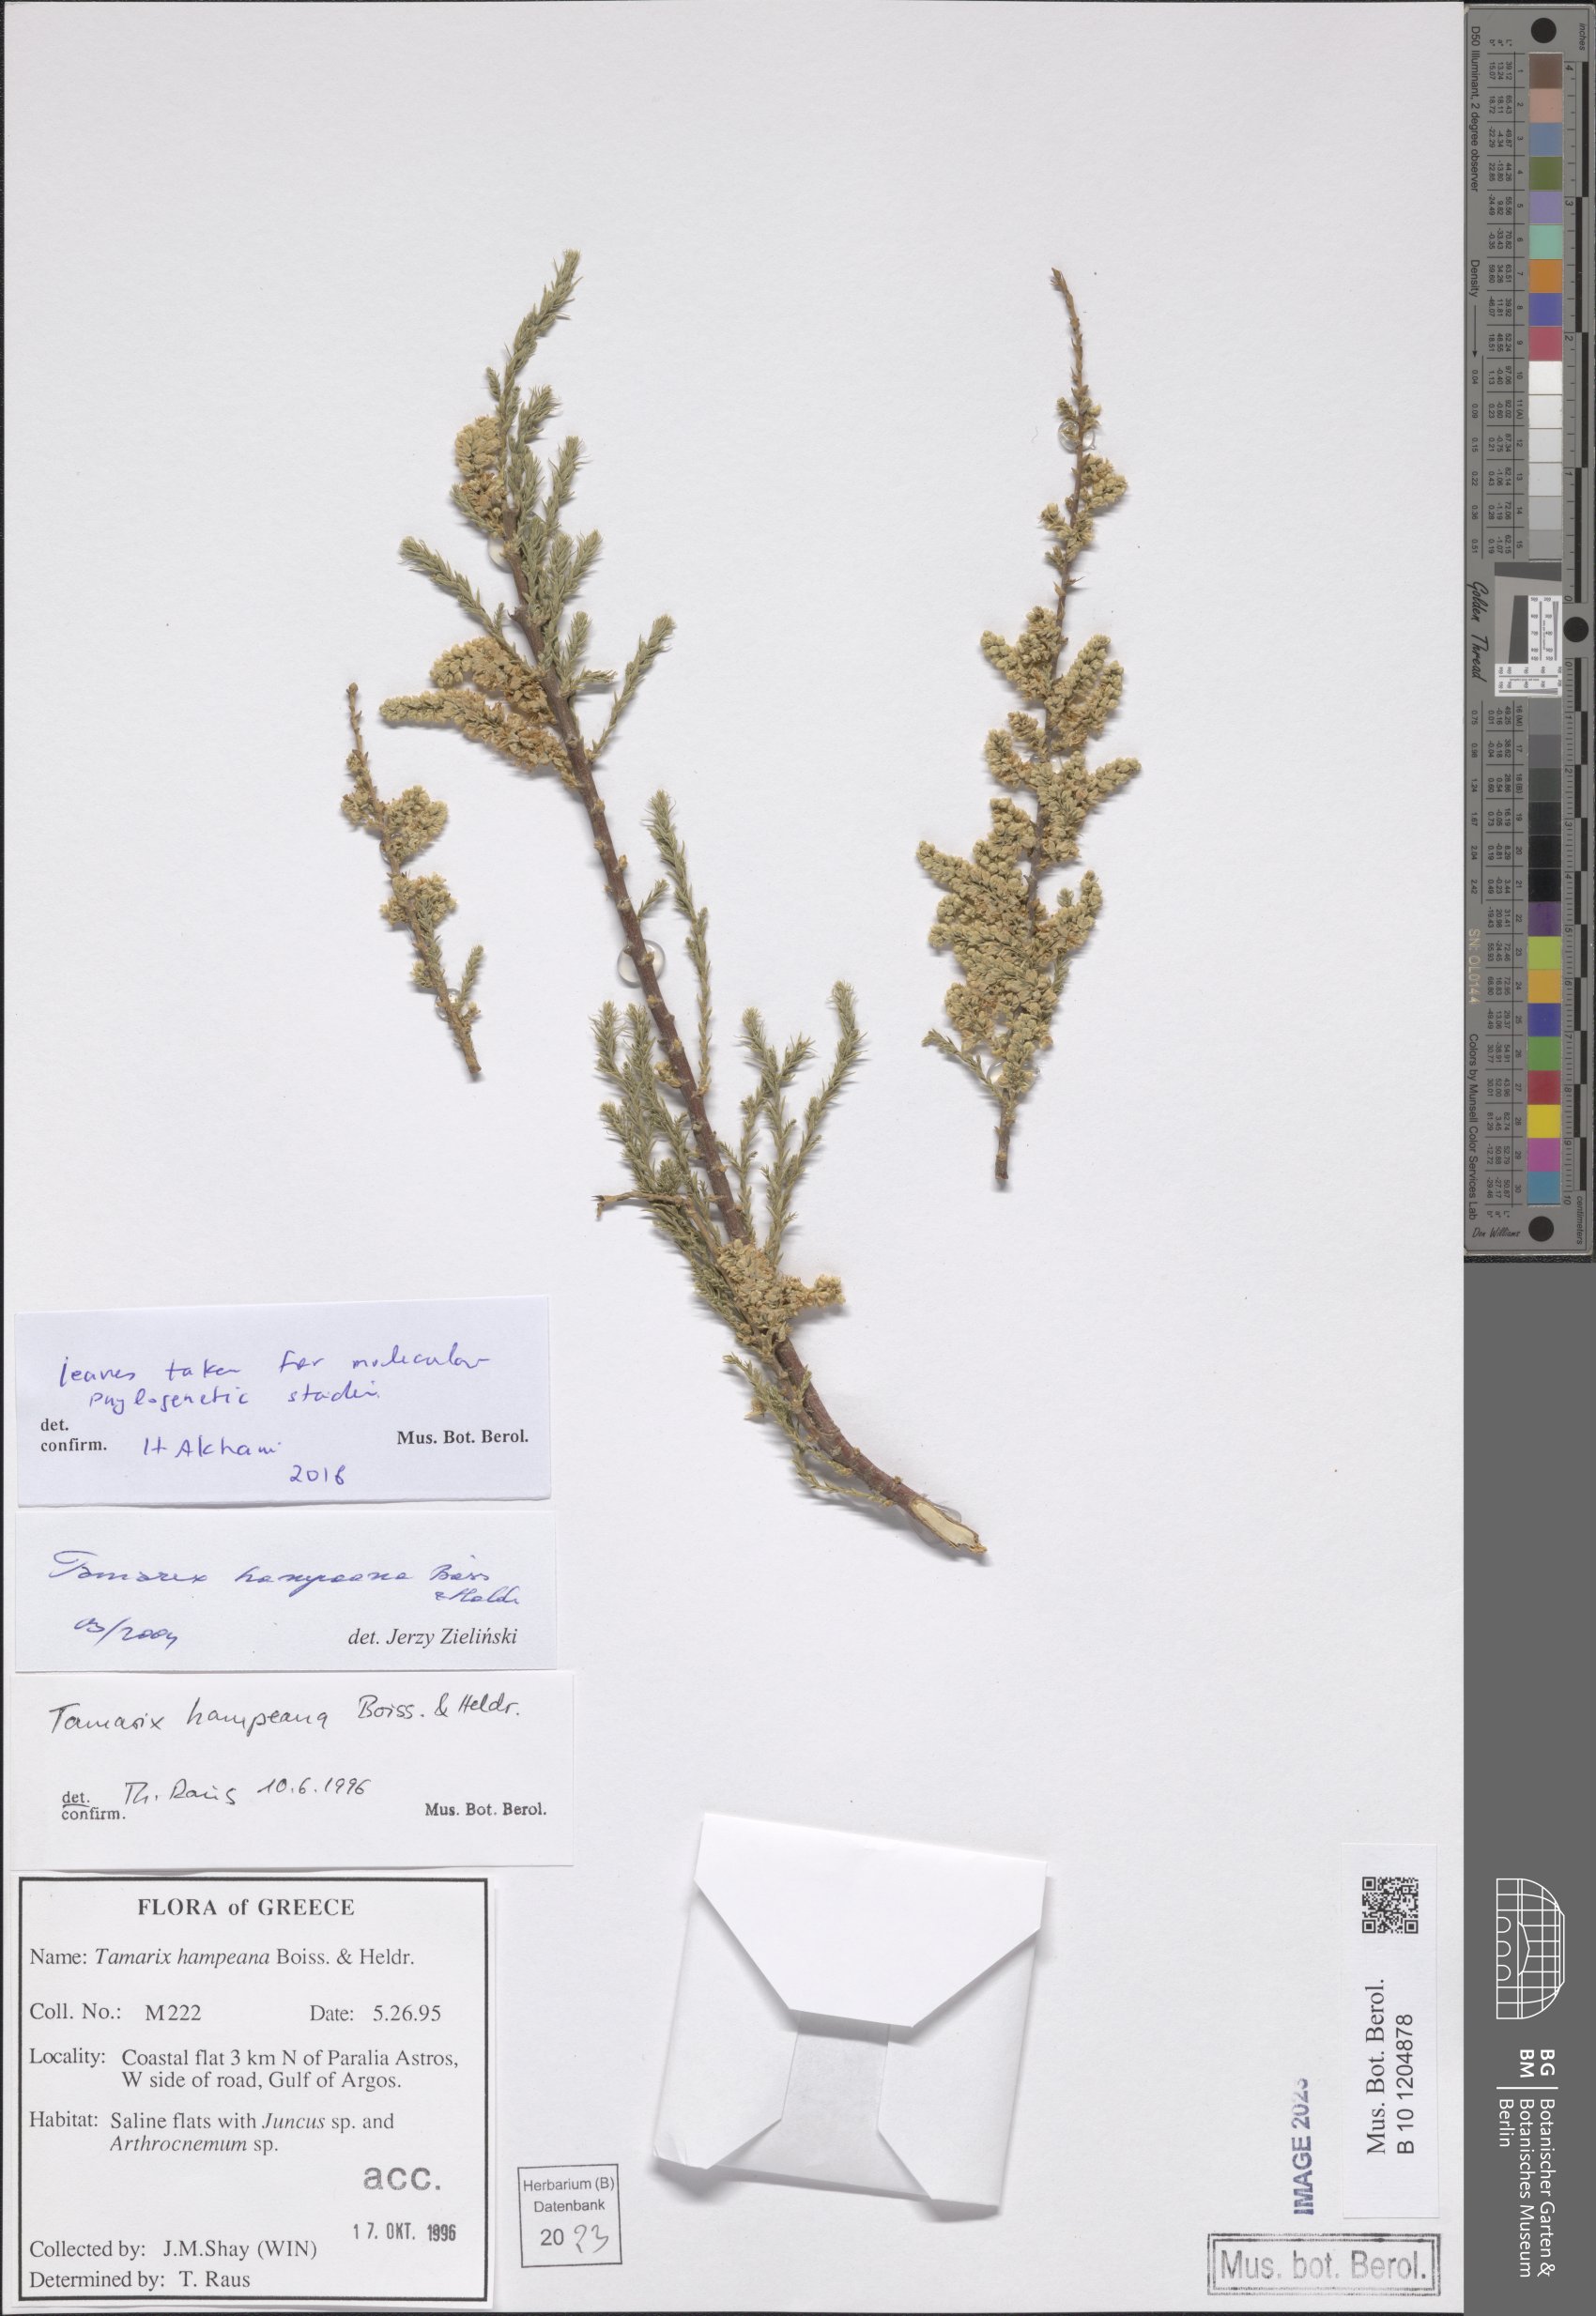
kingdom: Plantae
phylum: Tracheophyta
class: Magnoliopsida
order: Caryophyllales
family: Tamaricaceae
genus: Tamarix
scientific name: Tamarix hampeana
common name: Hampe’s tamarisk
